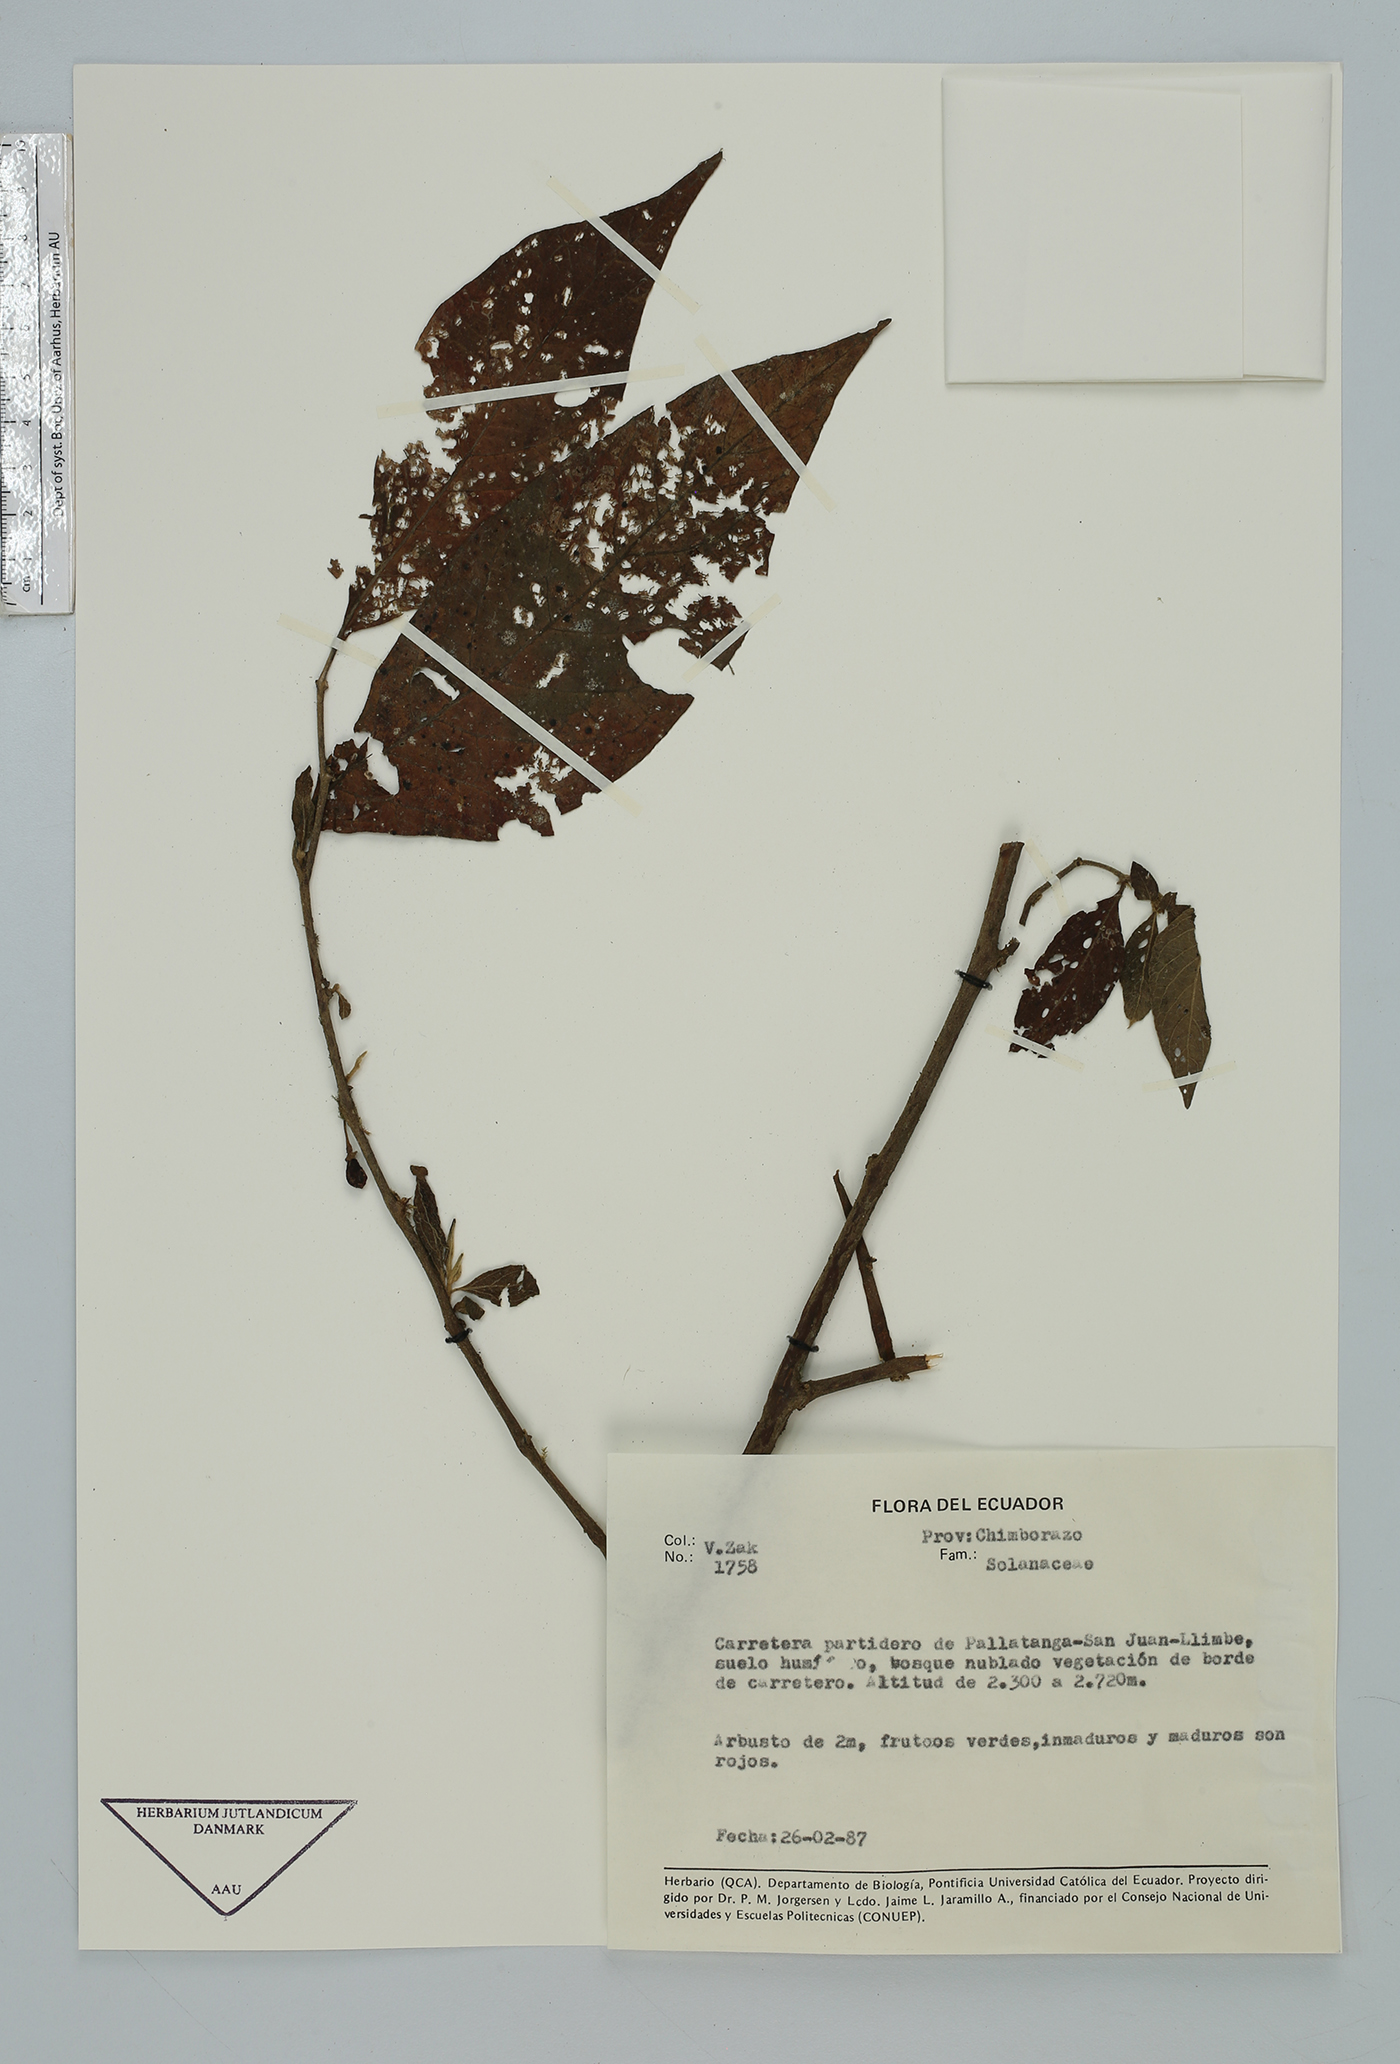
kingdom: Plantae
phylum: Tracheophyta
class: Magnoliopsida
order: Solanales
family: Solanaceae
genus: Lycianthes
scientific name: Lycianthes
